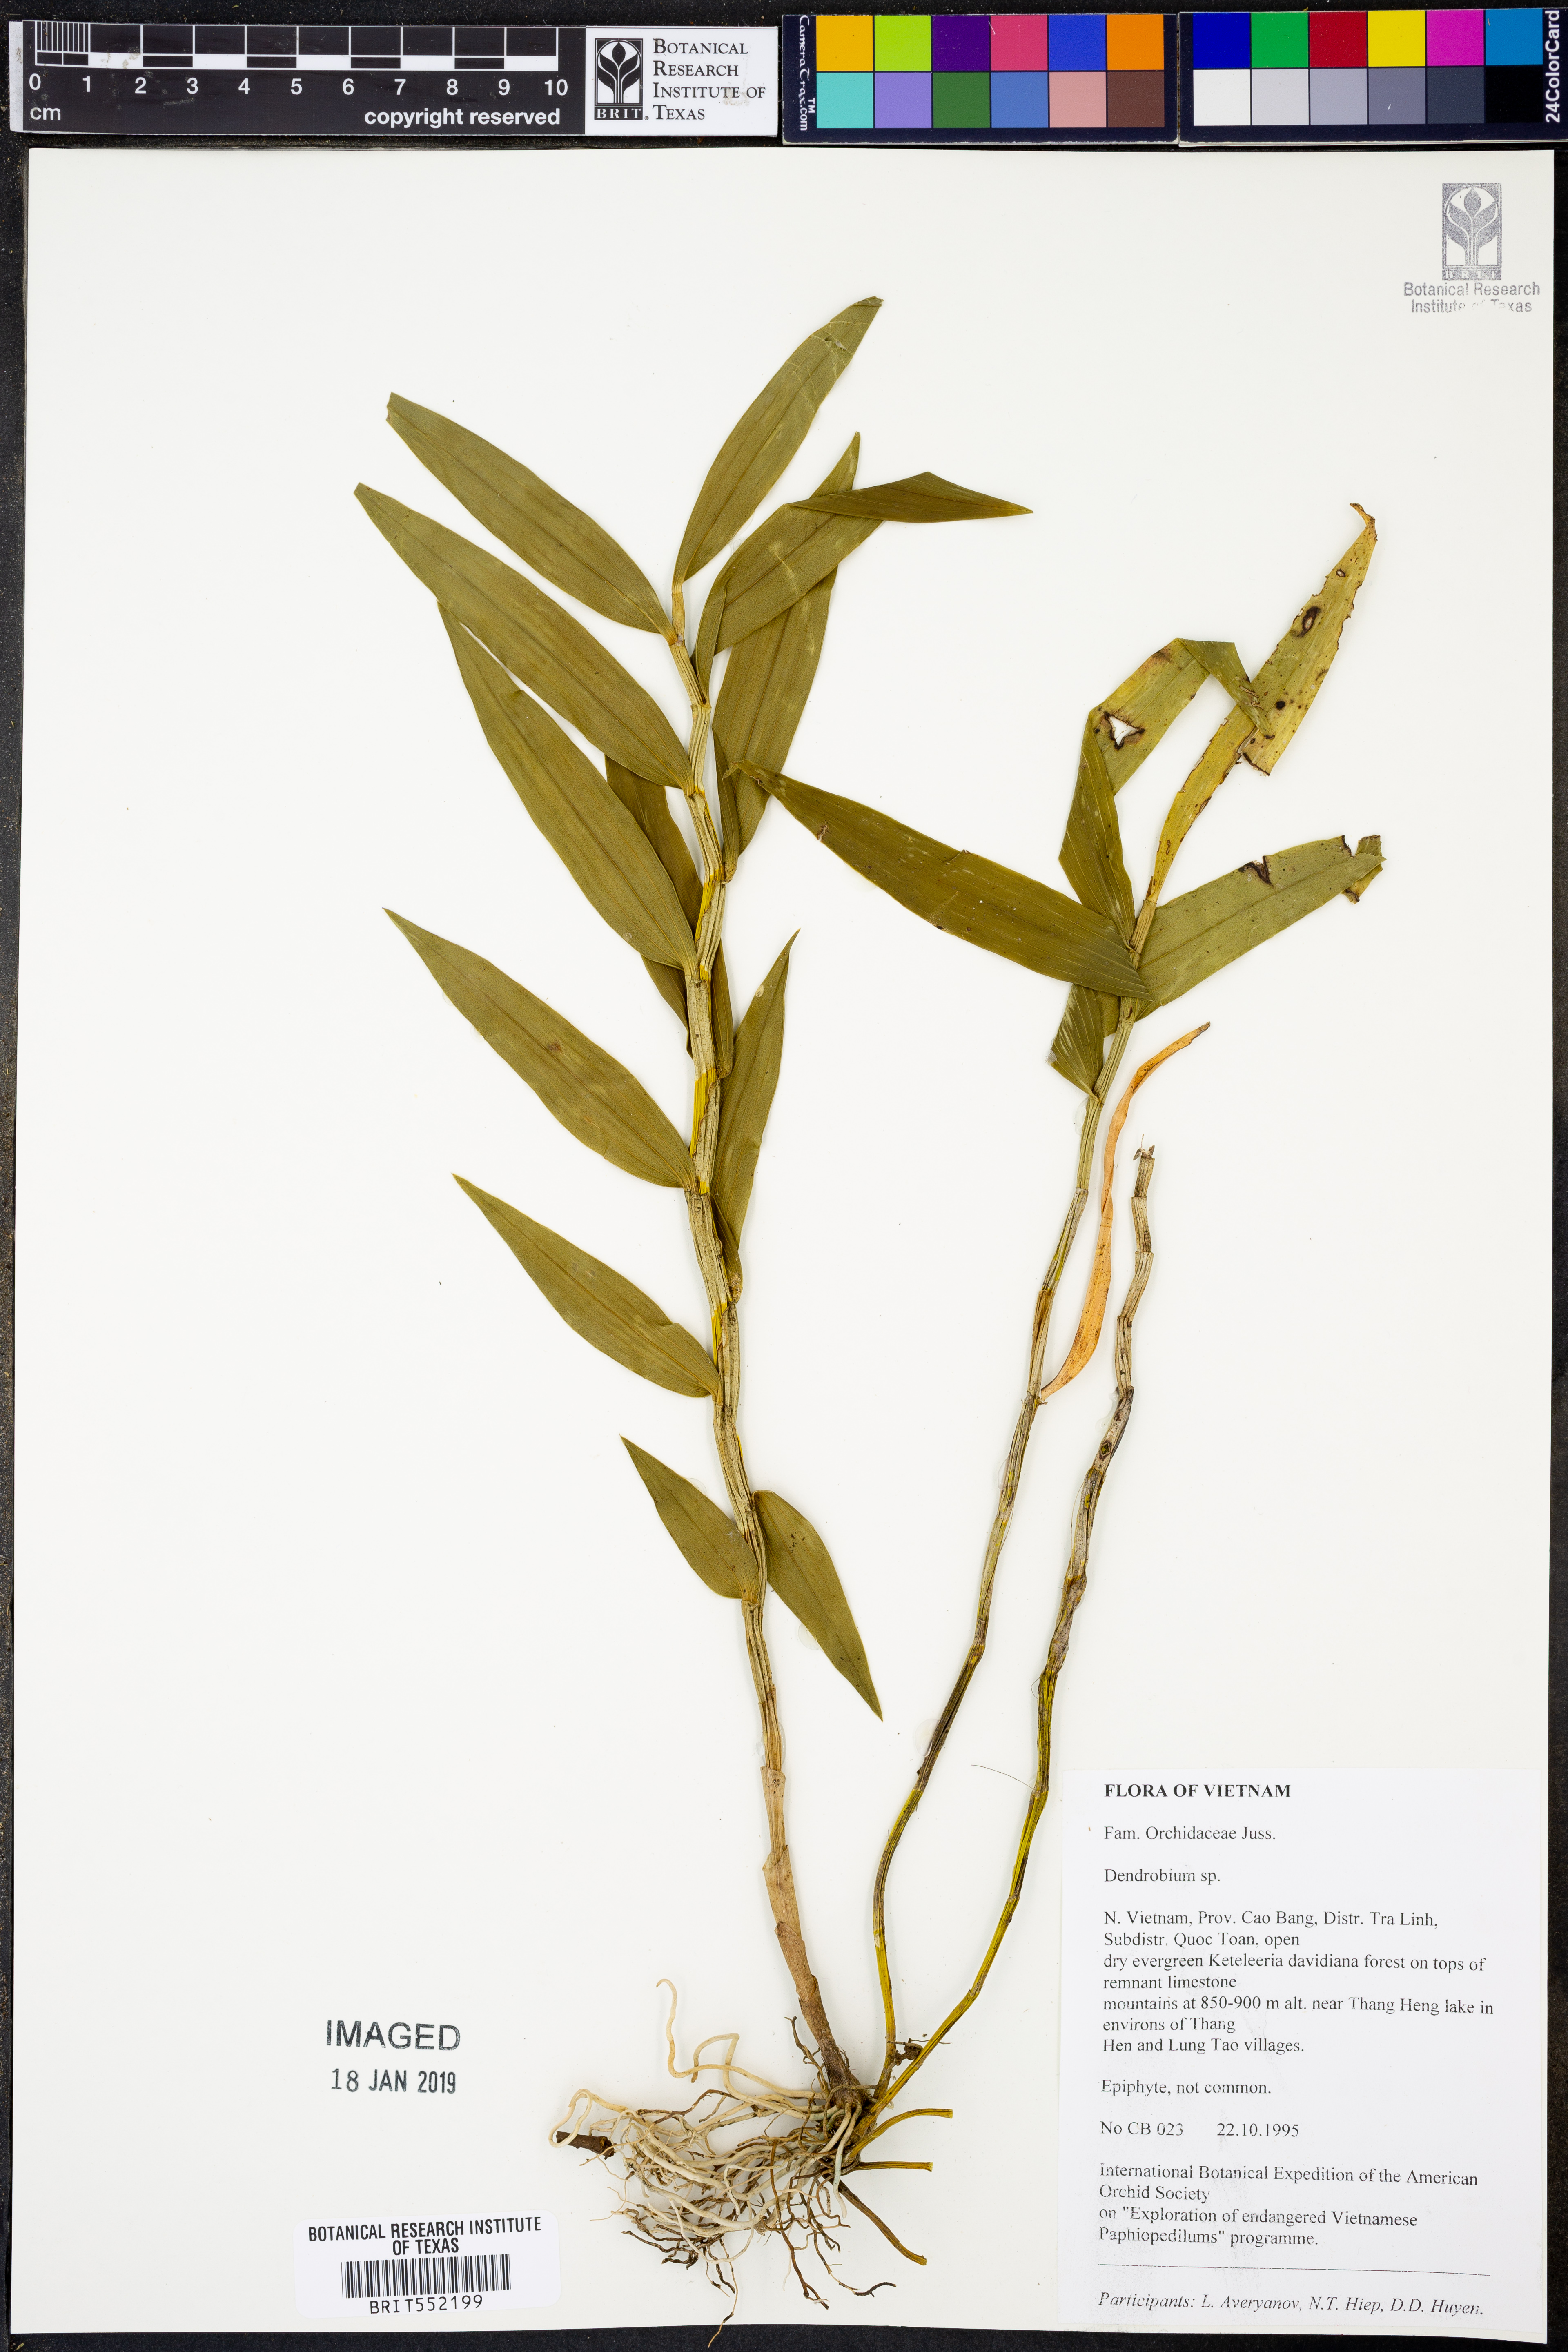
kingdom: Plantae
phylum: Tracheophyta
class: Liliopsida
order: Asparagales
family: Orchidaceae
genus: Dendrobium
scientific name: Dendrobium
